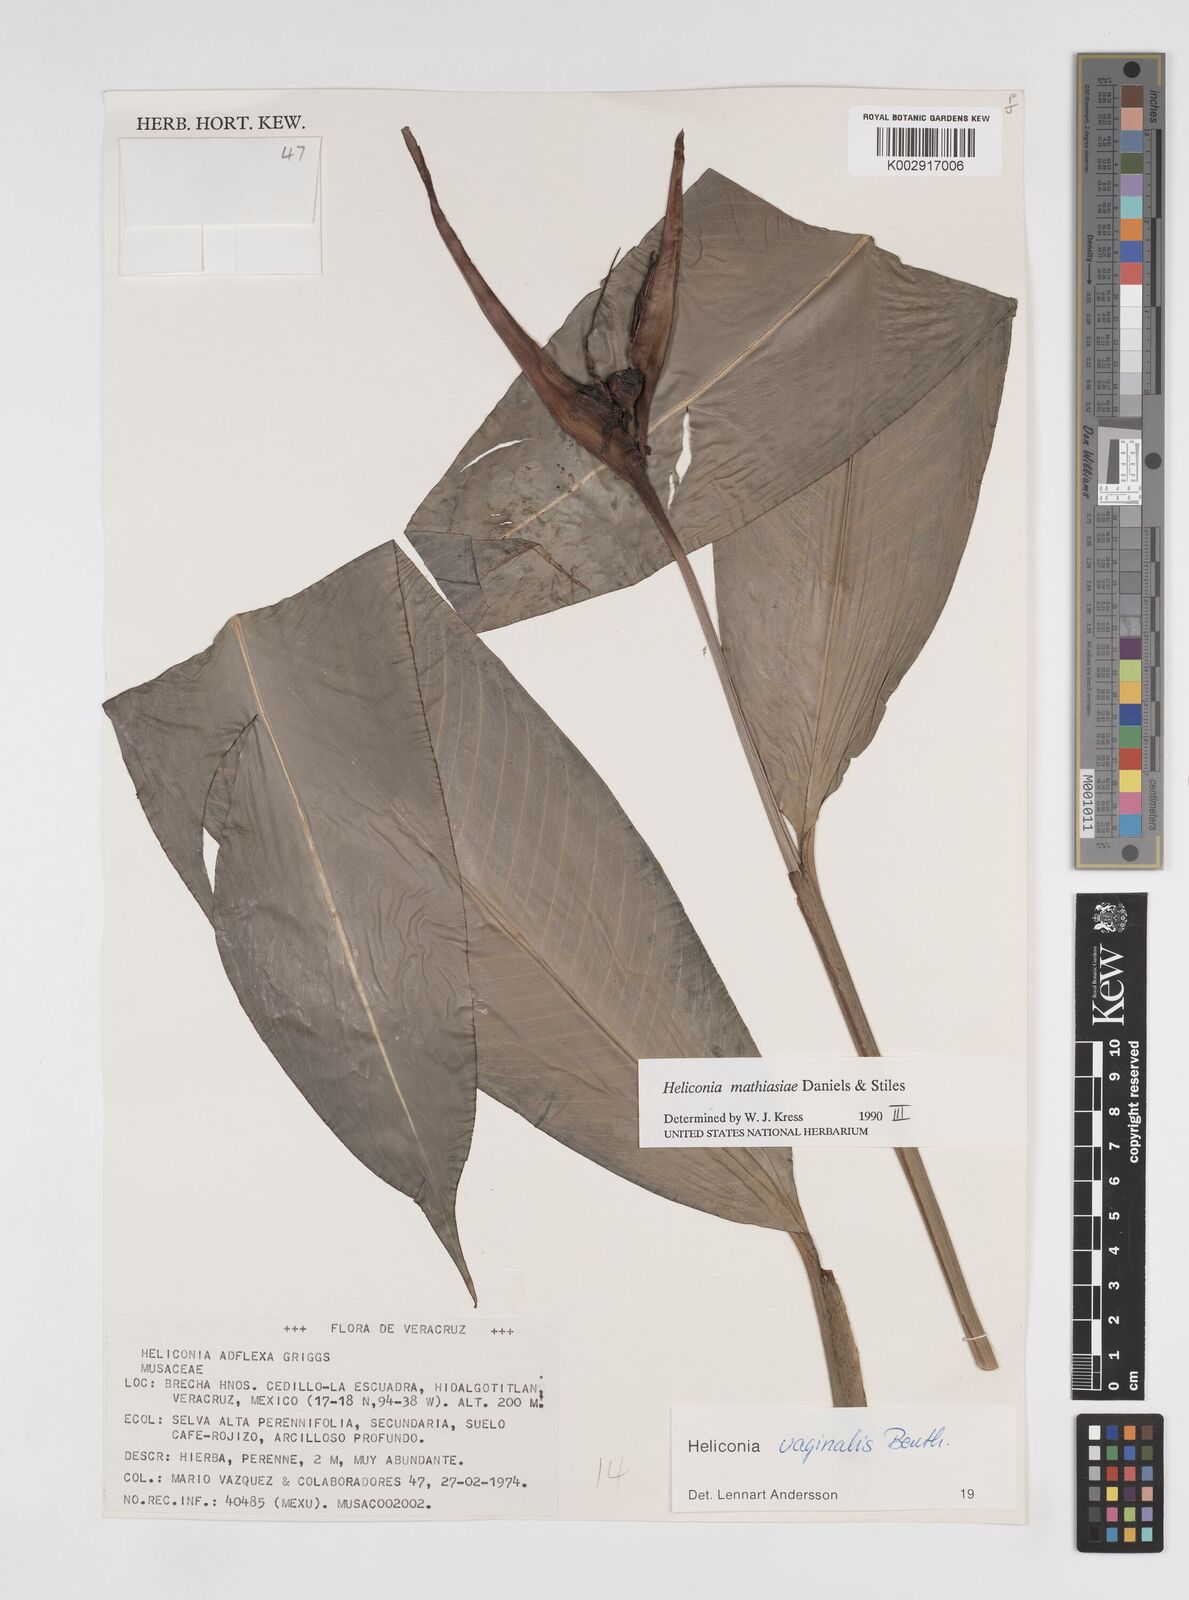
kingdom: Plantae
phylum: Tracheophyta
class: Liliopsida
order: Zingiberales
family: Heliconiaceae
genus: Heliconia
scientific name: Heliconia vaginalis
